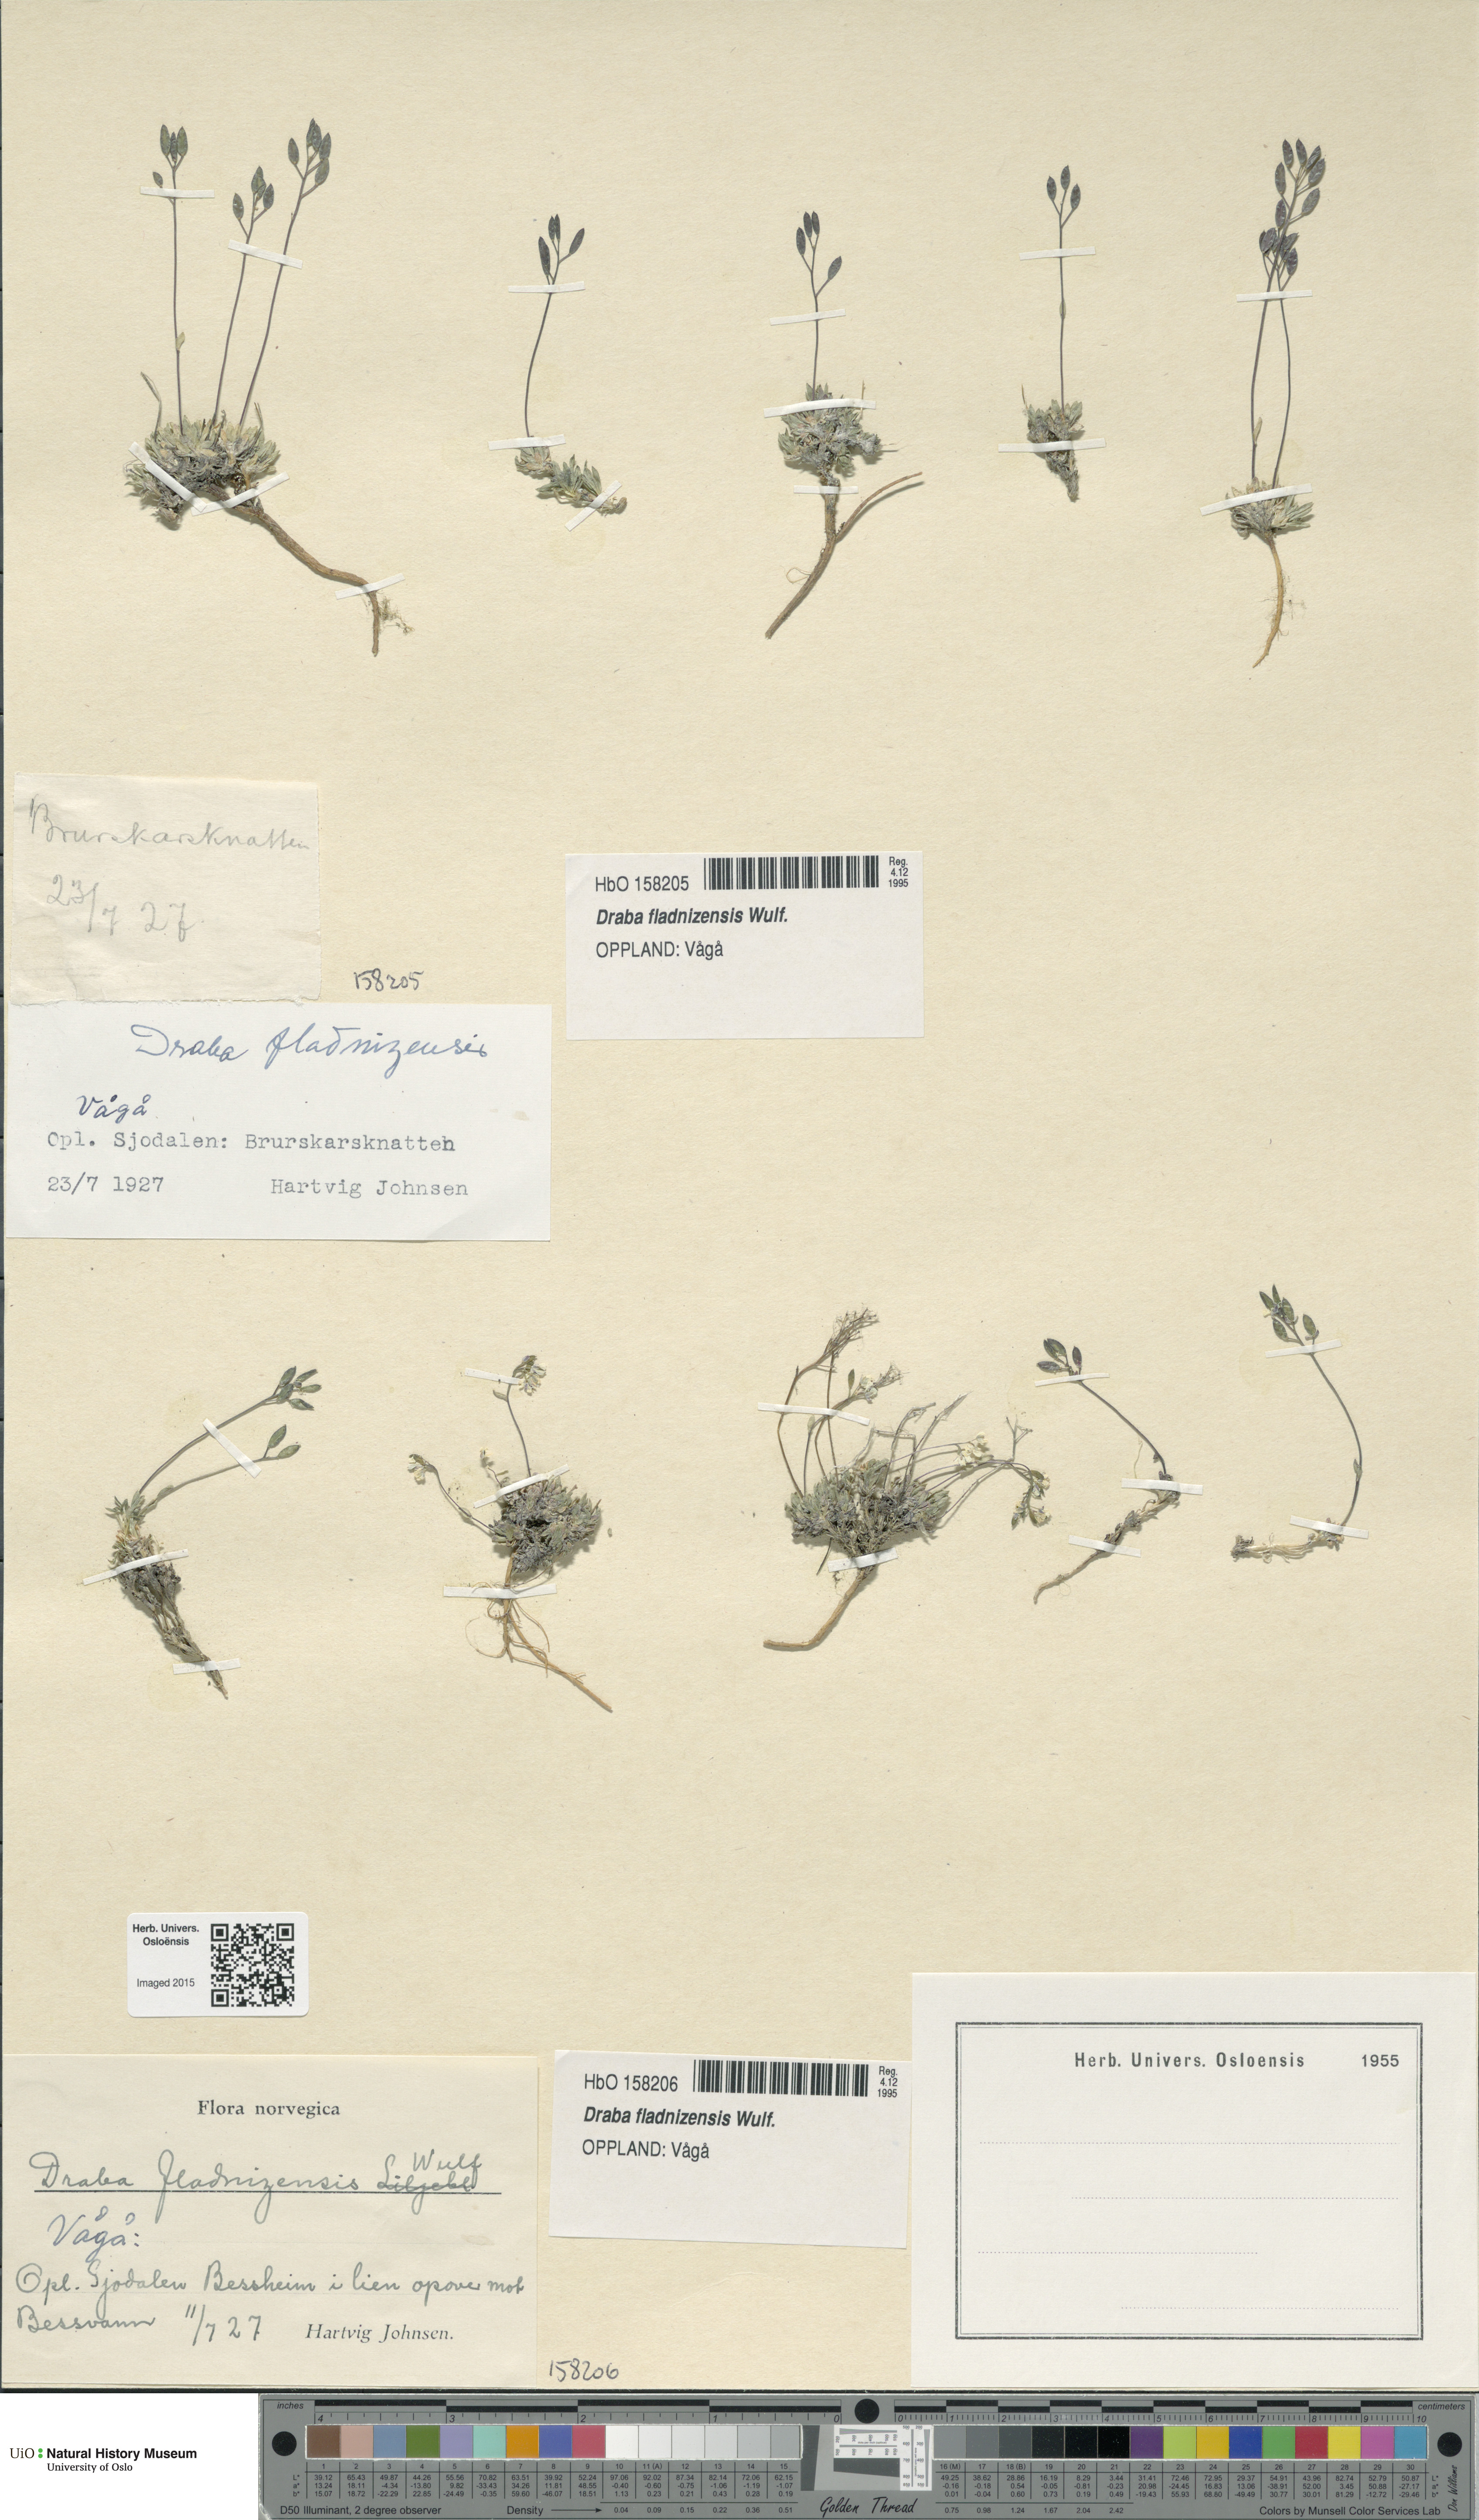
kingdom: Plantae
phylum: Tracheophyta
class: Magnoliopsida
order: Brassicales
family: Brassicaceae
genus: Draba
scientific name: Draba fladnizensis
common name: Austrian draba
